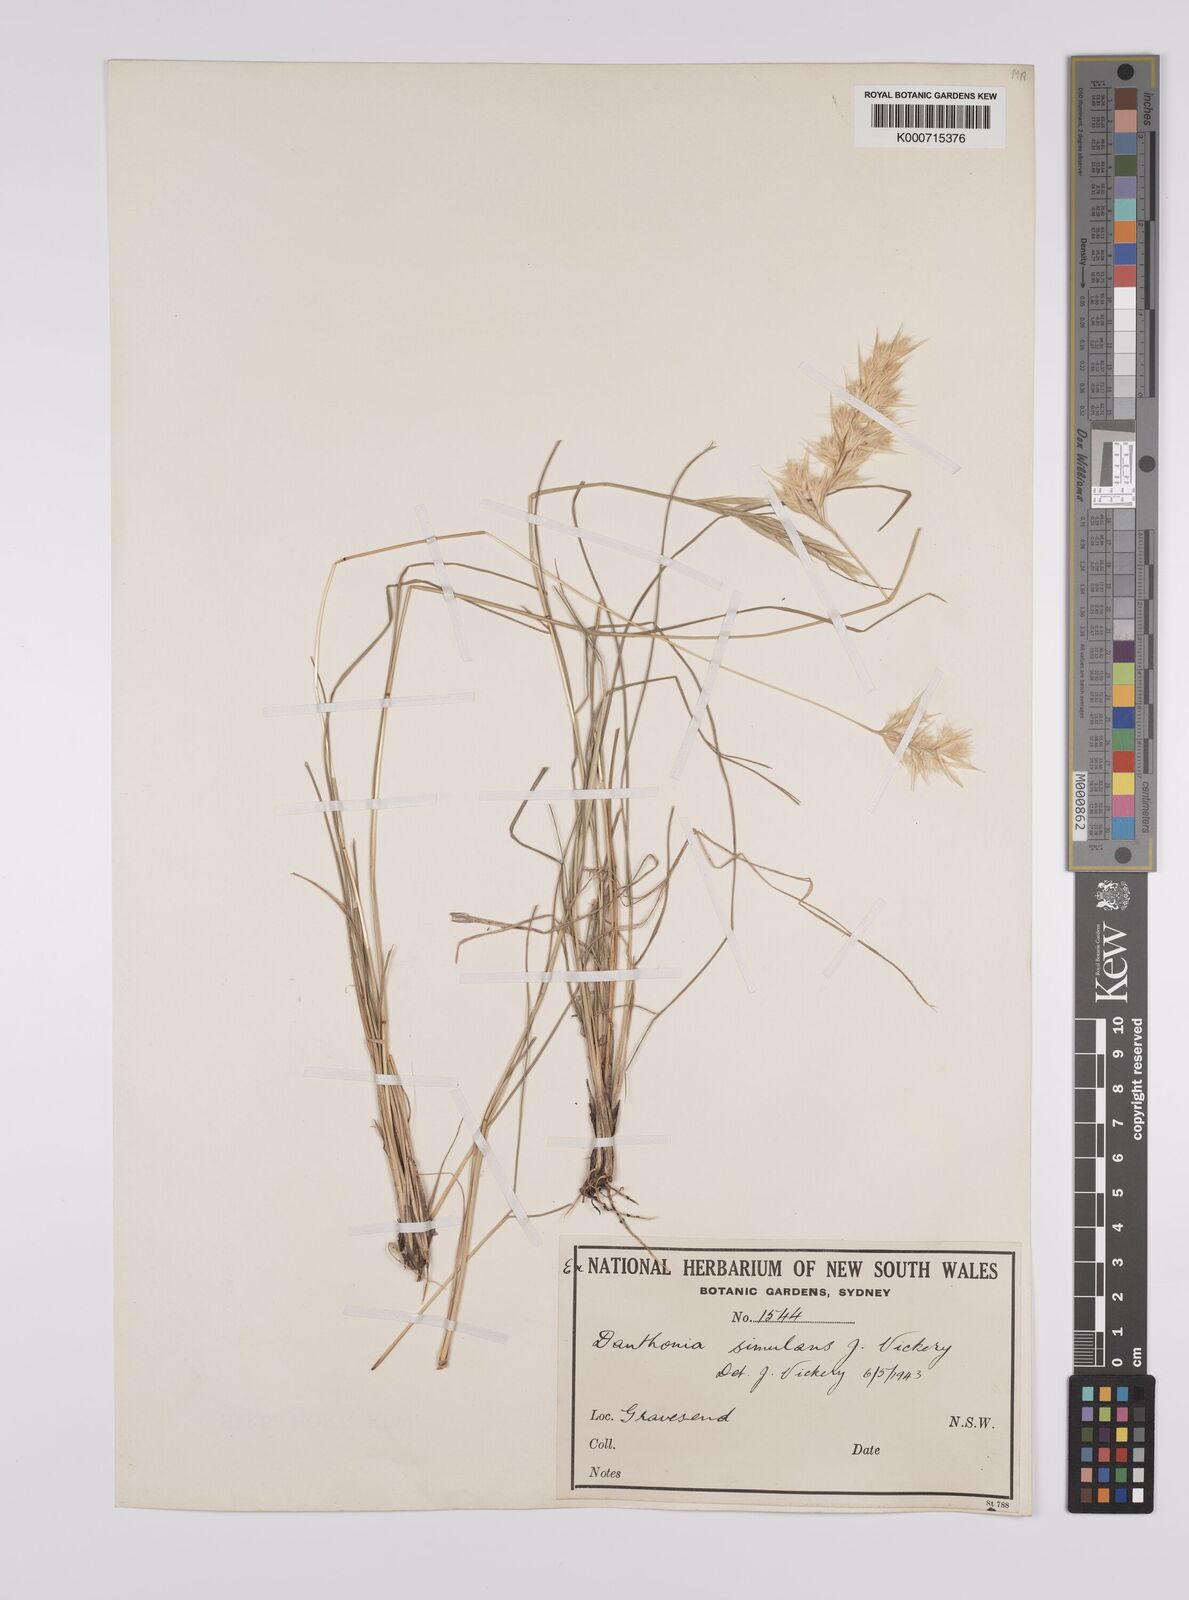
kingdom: Plantae
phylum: Tracheophyta
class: Liliopsida
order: Poales
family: Poaceae
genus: Rytidosperma
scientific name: Rytidosperma bipartitum
